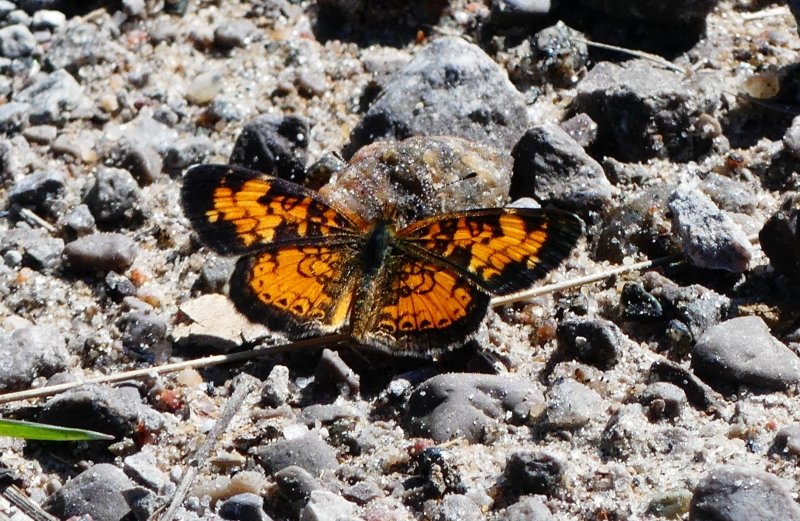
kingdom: Animalia
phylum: Arthropoda
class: Insecta
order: Lepidoptera
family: Nymphalidae
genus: Phyciodes
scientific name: Phyciodes tharos
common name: Pearl Crescent
